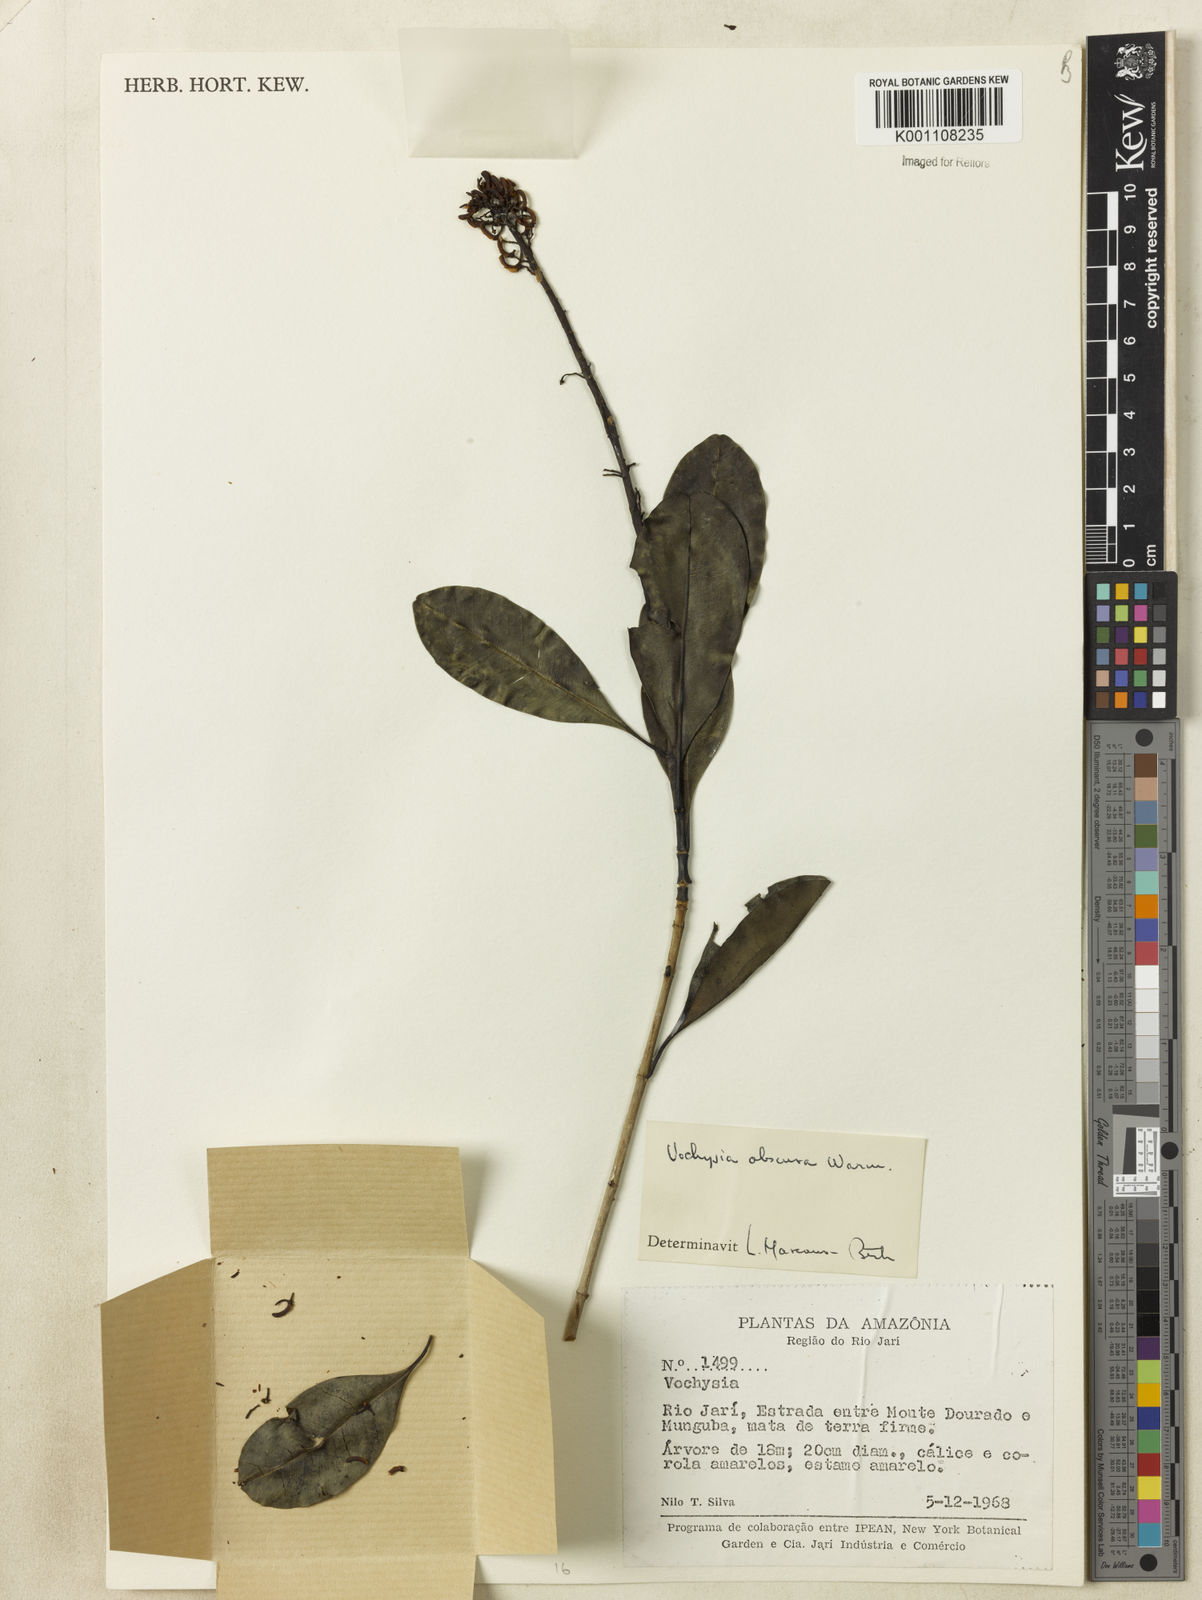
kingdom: Plantae
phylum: Tracheophyta
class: Magnoliopsida
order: Myrtales
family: Vochysiaceae
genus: Vochysia
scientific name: Vochysia obscura
